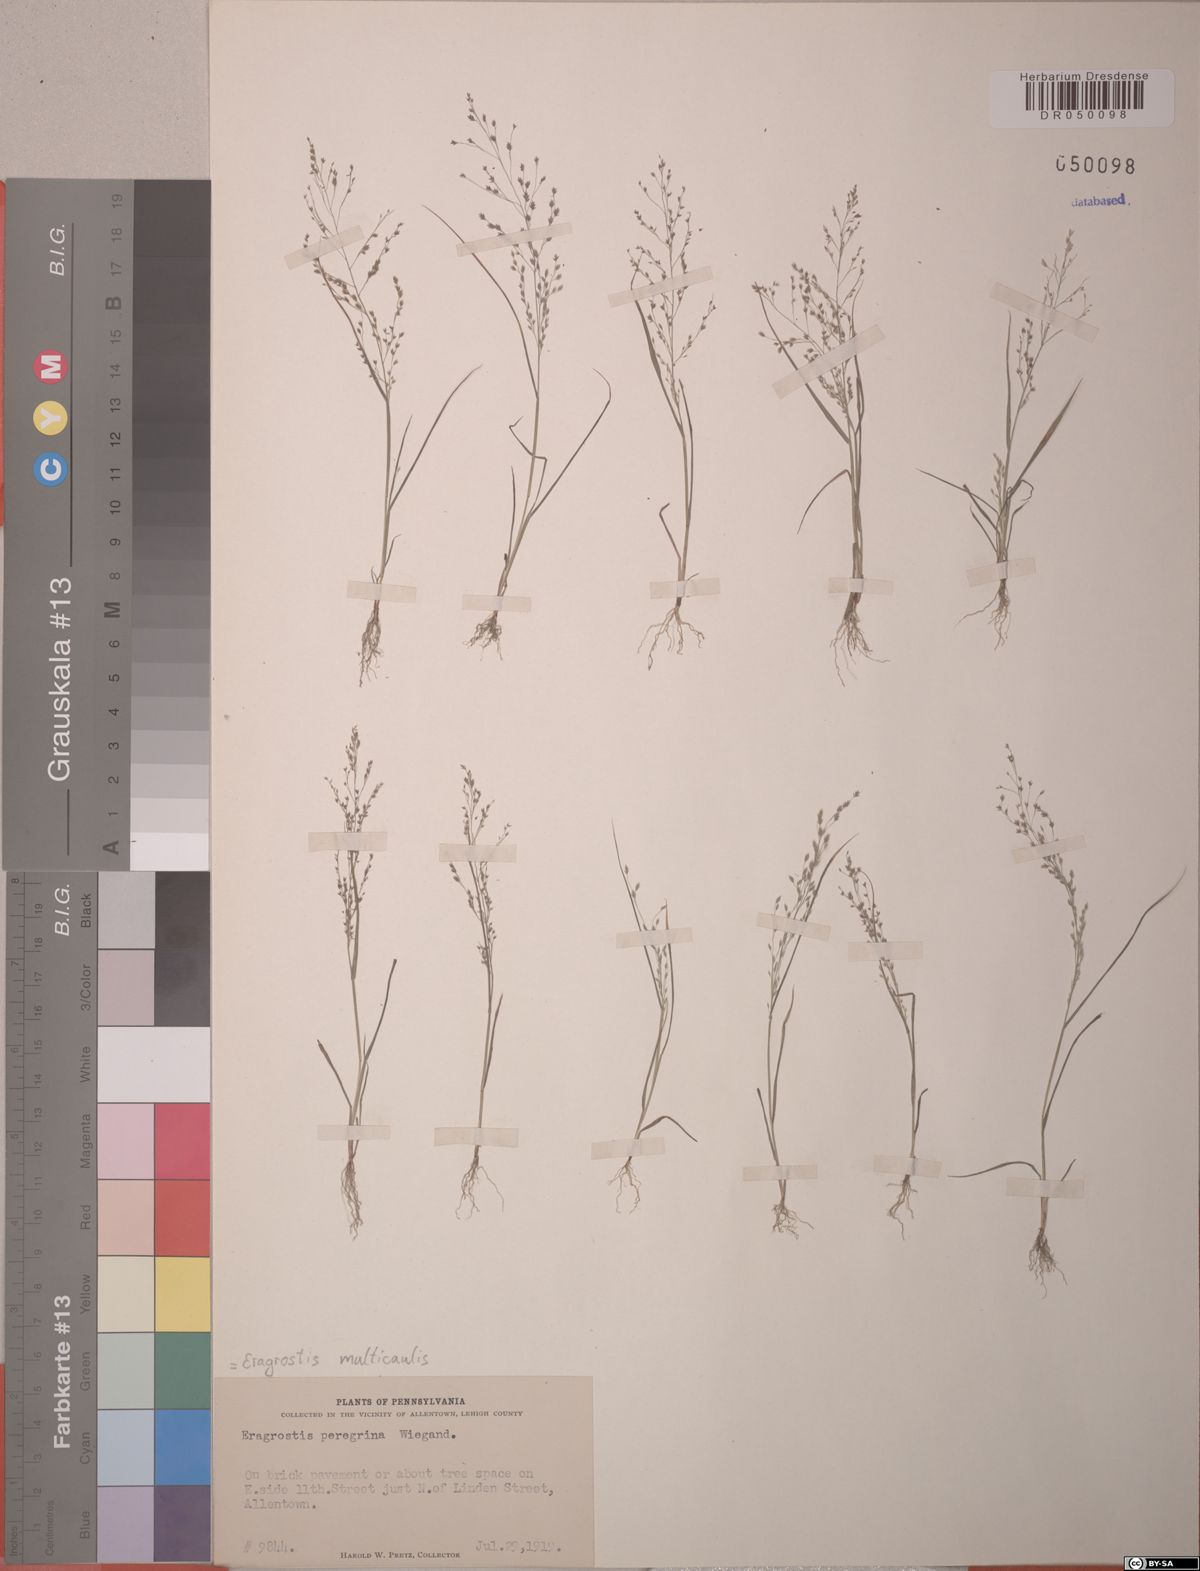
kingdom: Plantae
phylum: Tracheophyta
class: Liliopsida
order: Poales
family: Poaceae
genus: Eragrostis
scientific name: Eragrostis multicaulis
